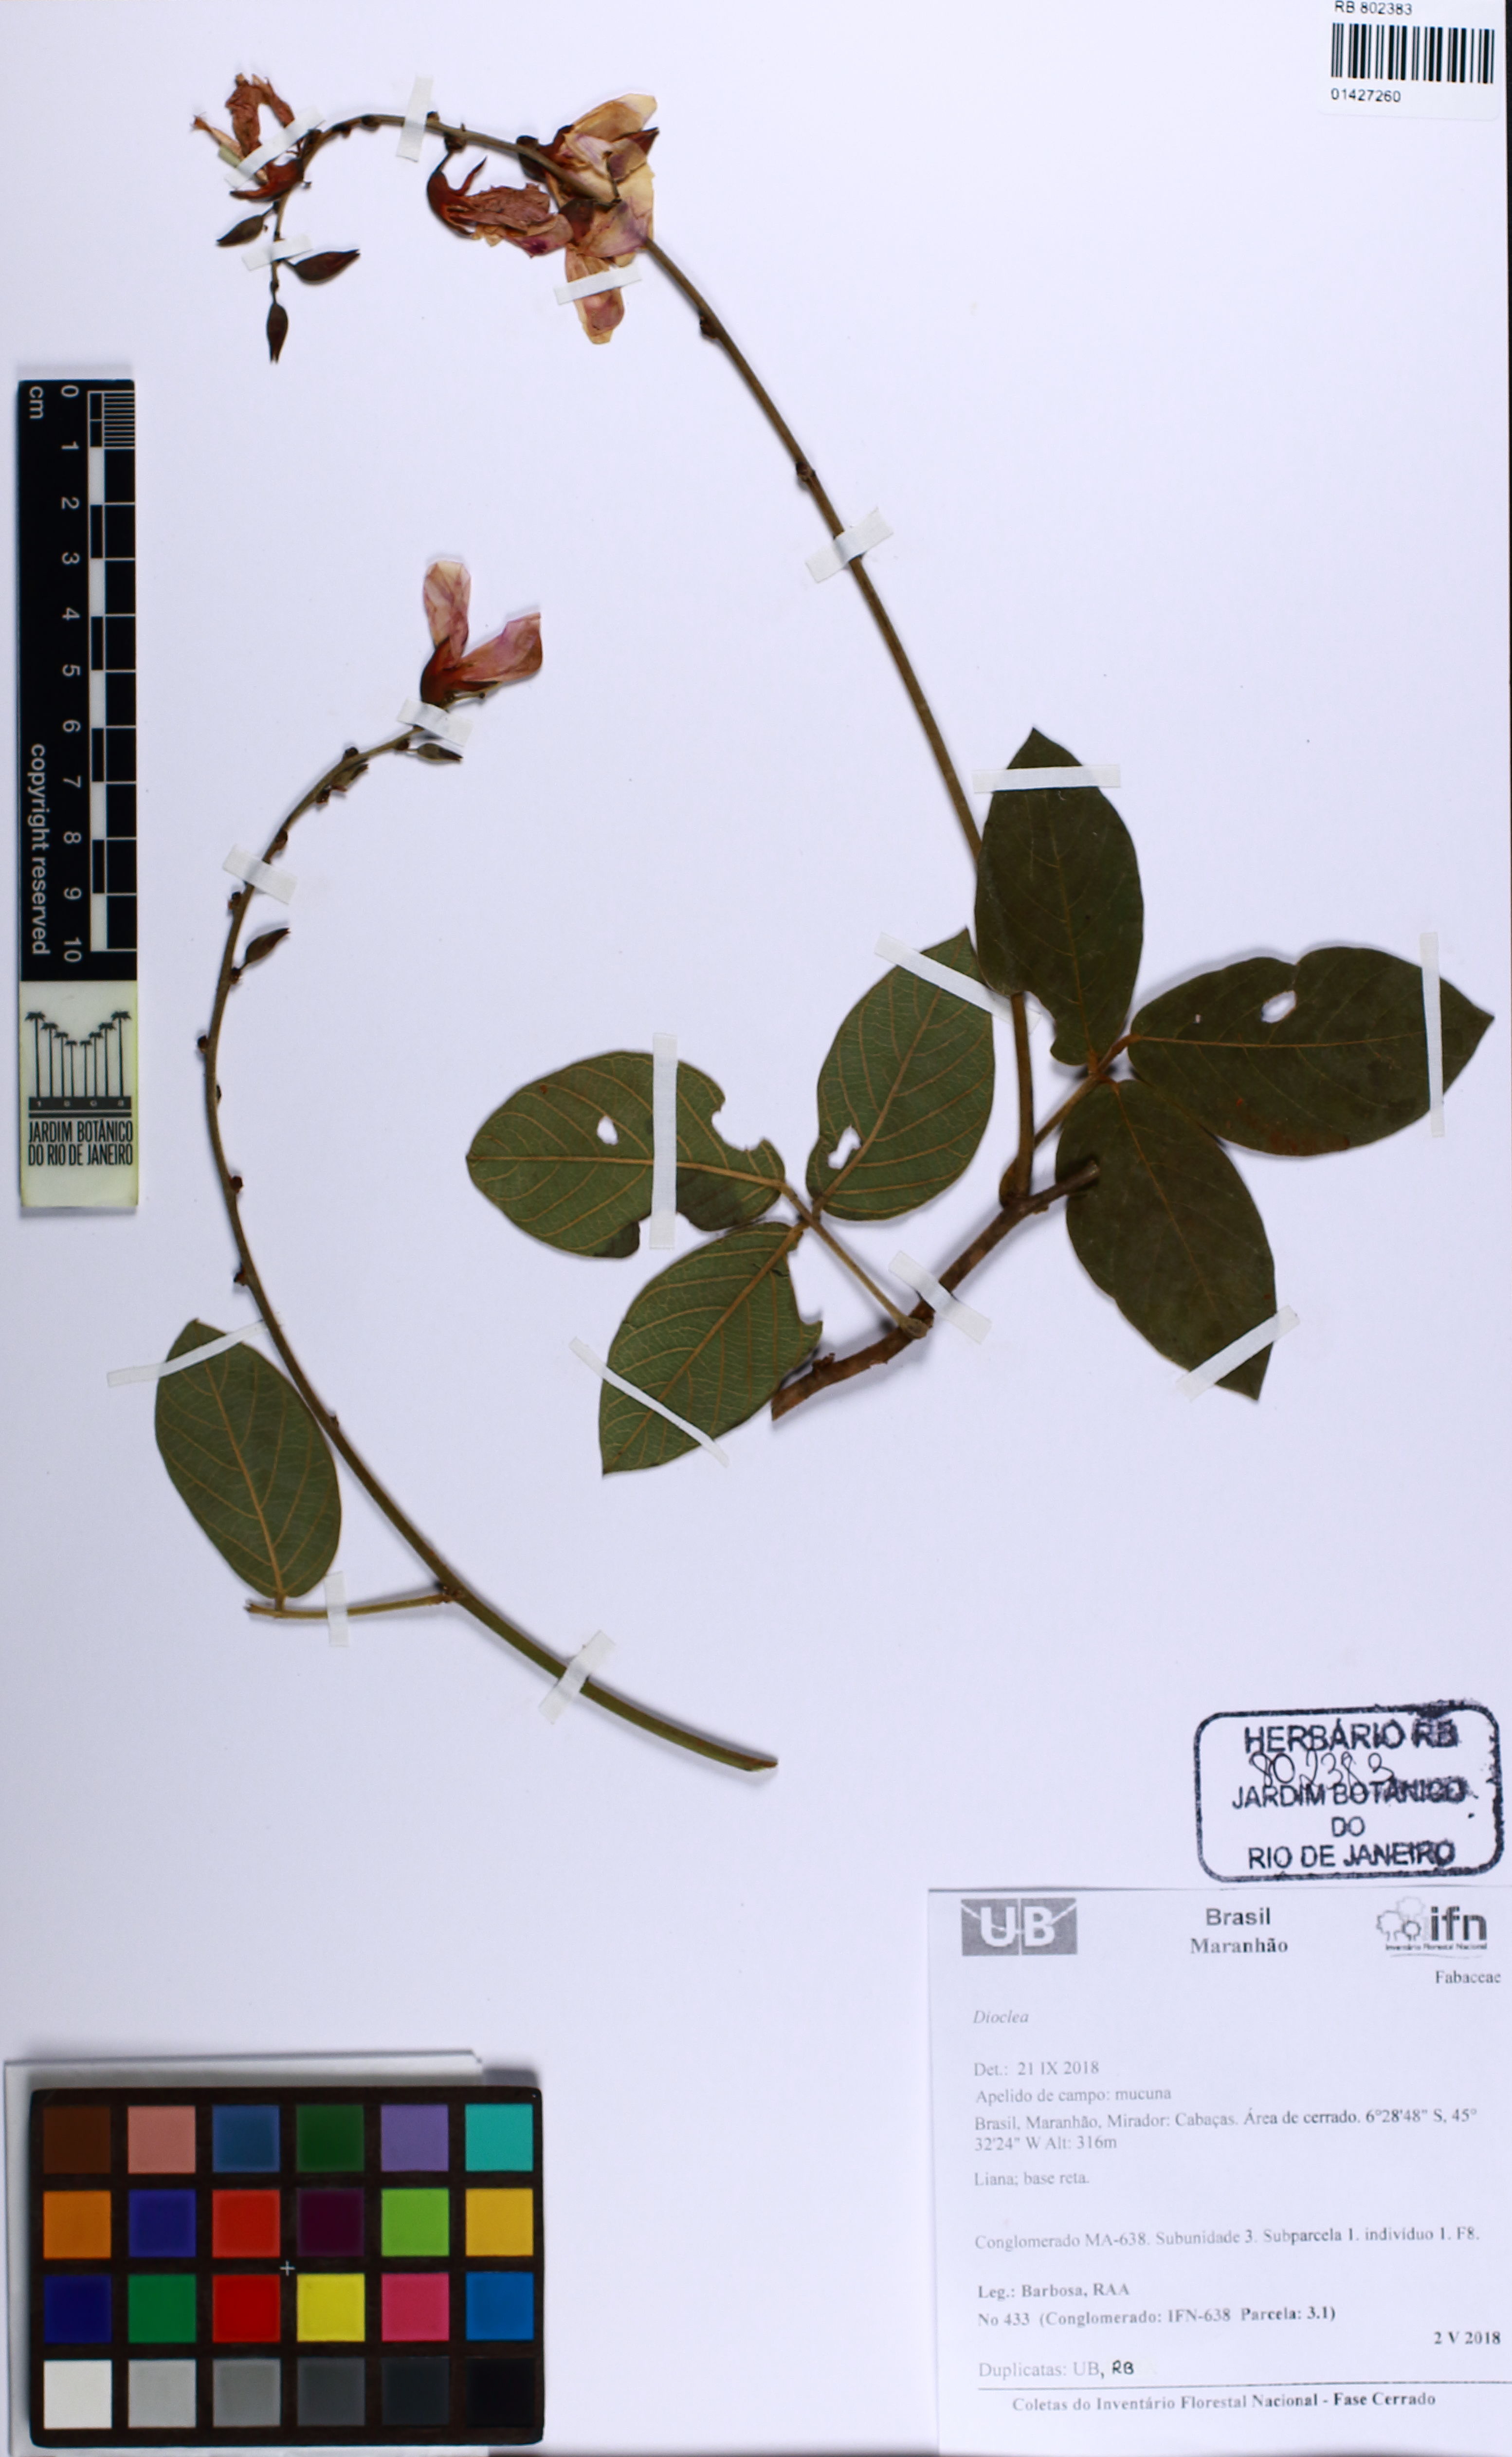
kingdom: Plantae
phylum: Tracheophyta
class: Magnoliopsida
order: Fabales
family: Fabaceae
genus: Dioclea
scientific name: Dioclea
